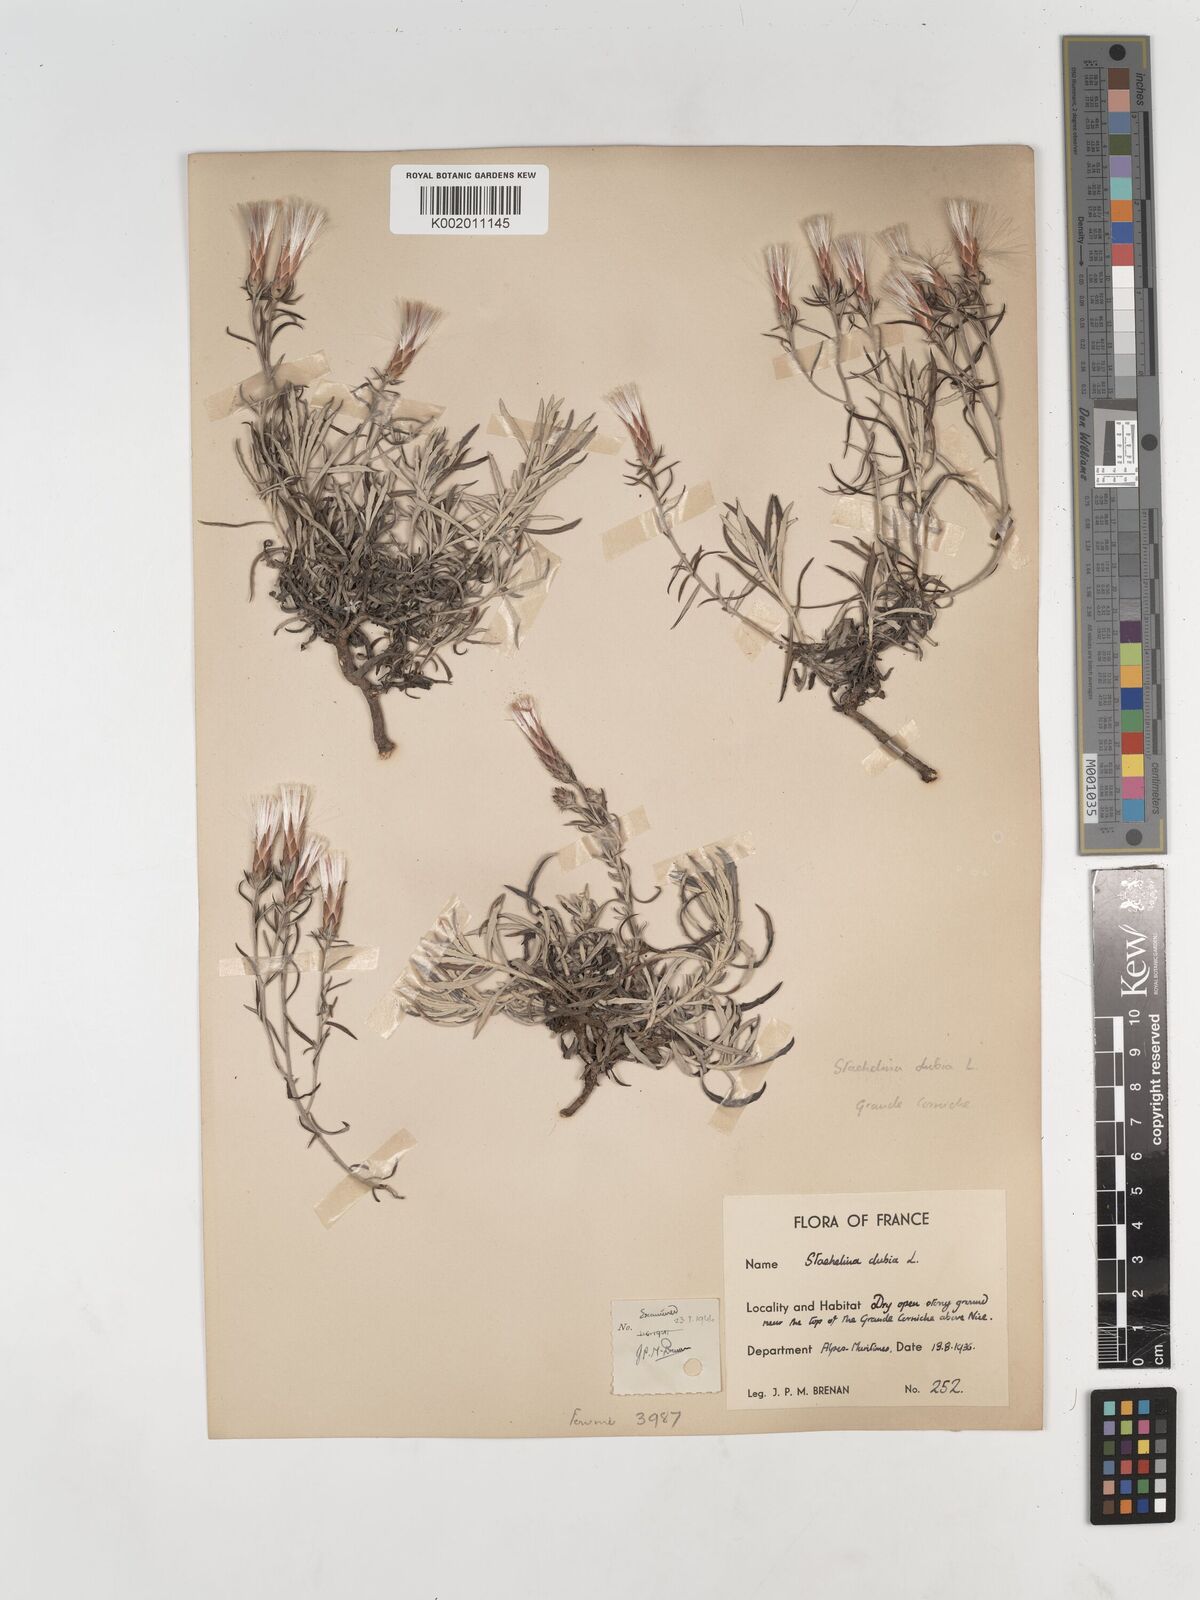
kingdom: Plantae
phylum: Tracheophyta
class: Magnoliopsida
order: Asterales
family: Asteraceae
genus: Staehelina
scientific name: Staehelina dubia
